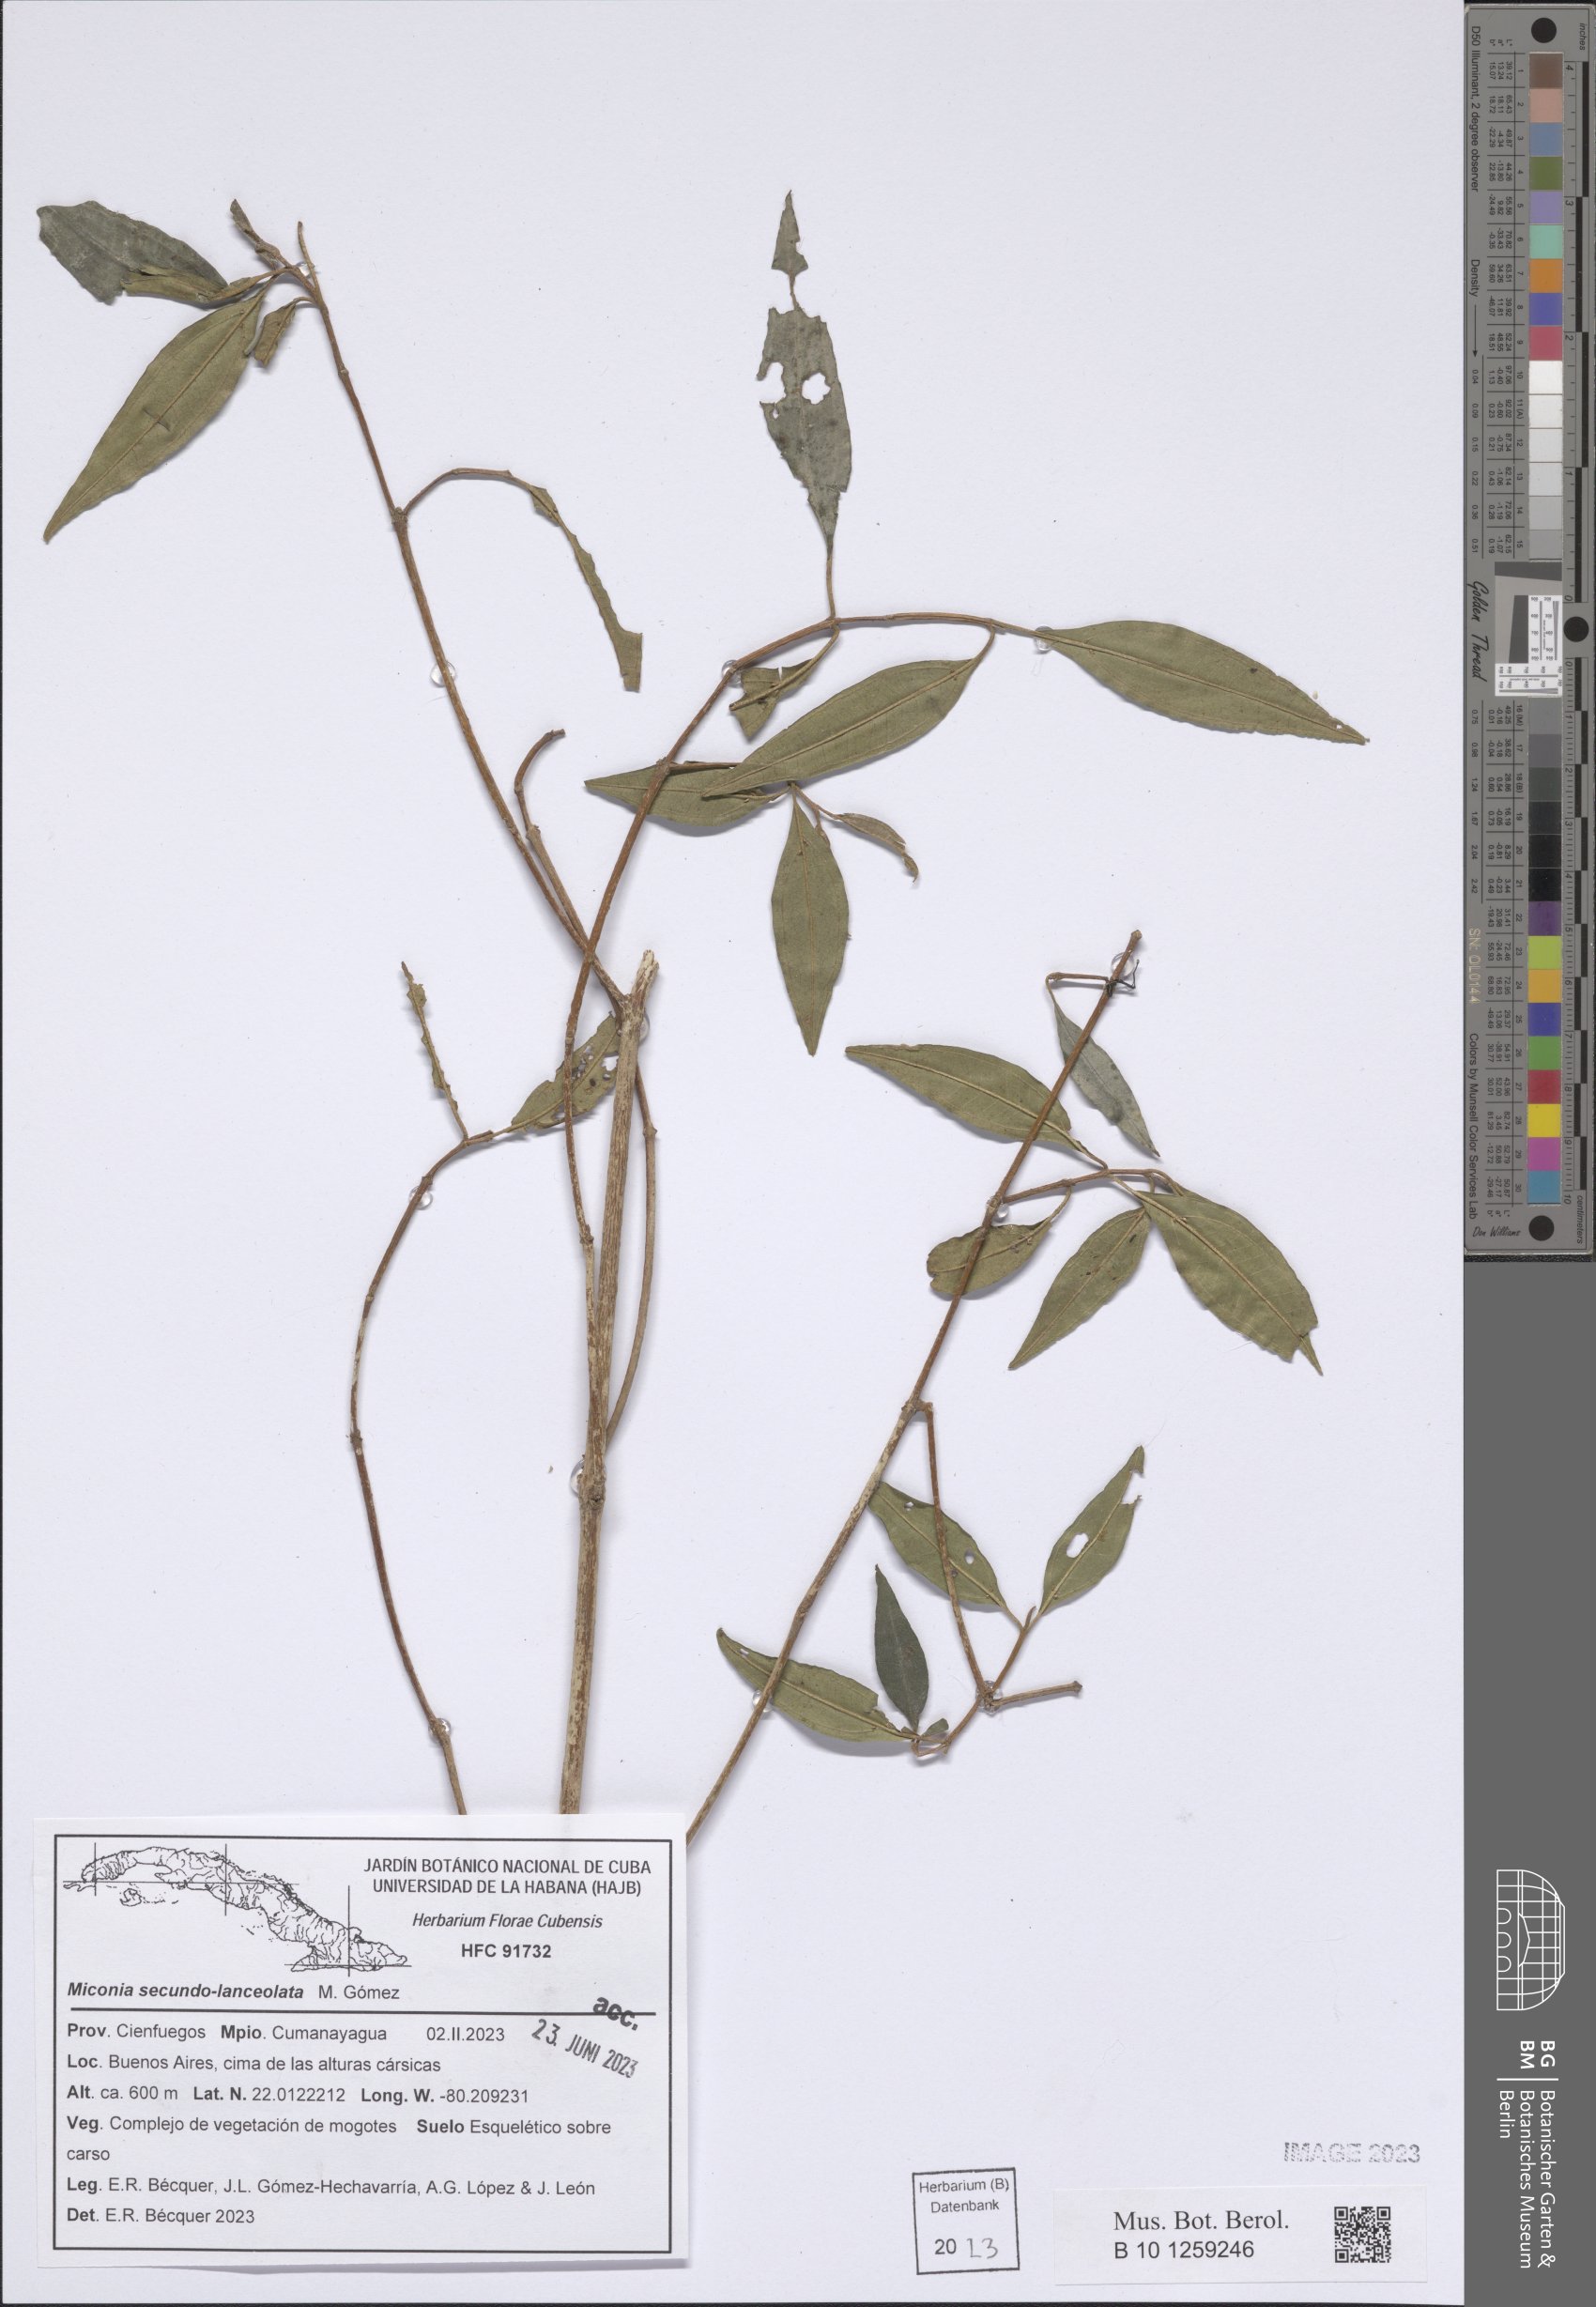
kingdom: Plantae
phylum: Tracheophyta
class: Magnoliopsida
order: Myrtales
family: Melastomataceae
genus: Miconia
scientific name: Miconia secundolanceolata
